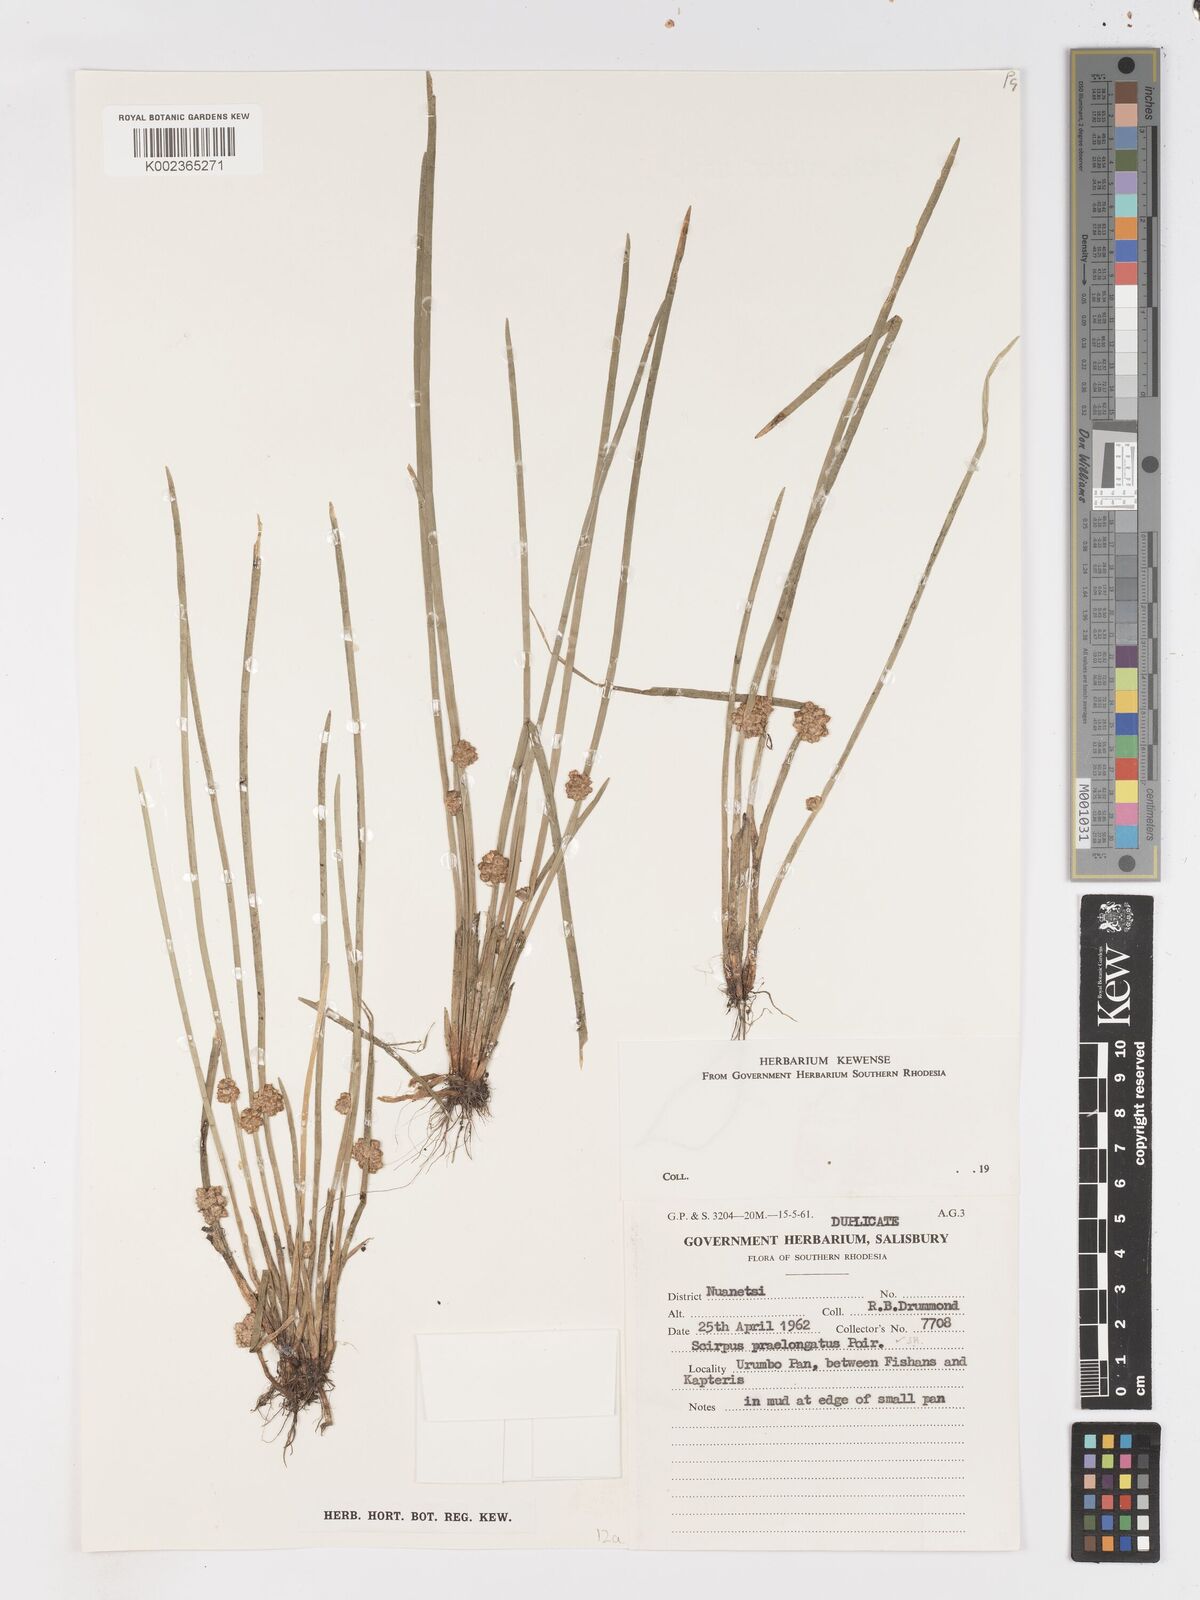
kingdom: Plantae
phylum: Tracheophyta
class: Liliopsida
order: Poales
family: Cyperaceae
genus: Schoenoplectiella
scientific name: Schoenoplectiella senegalensis
